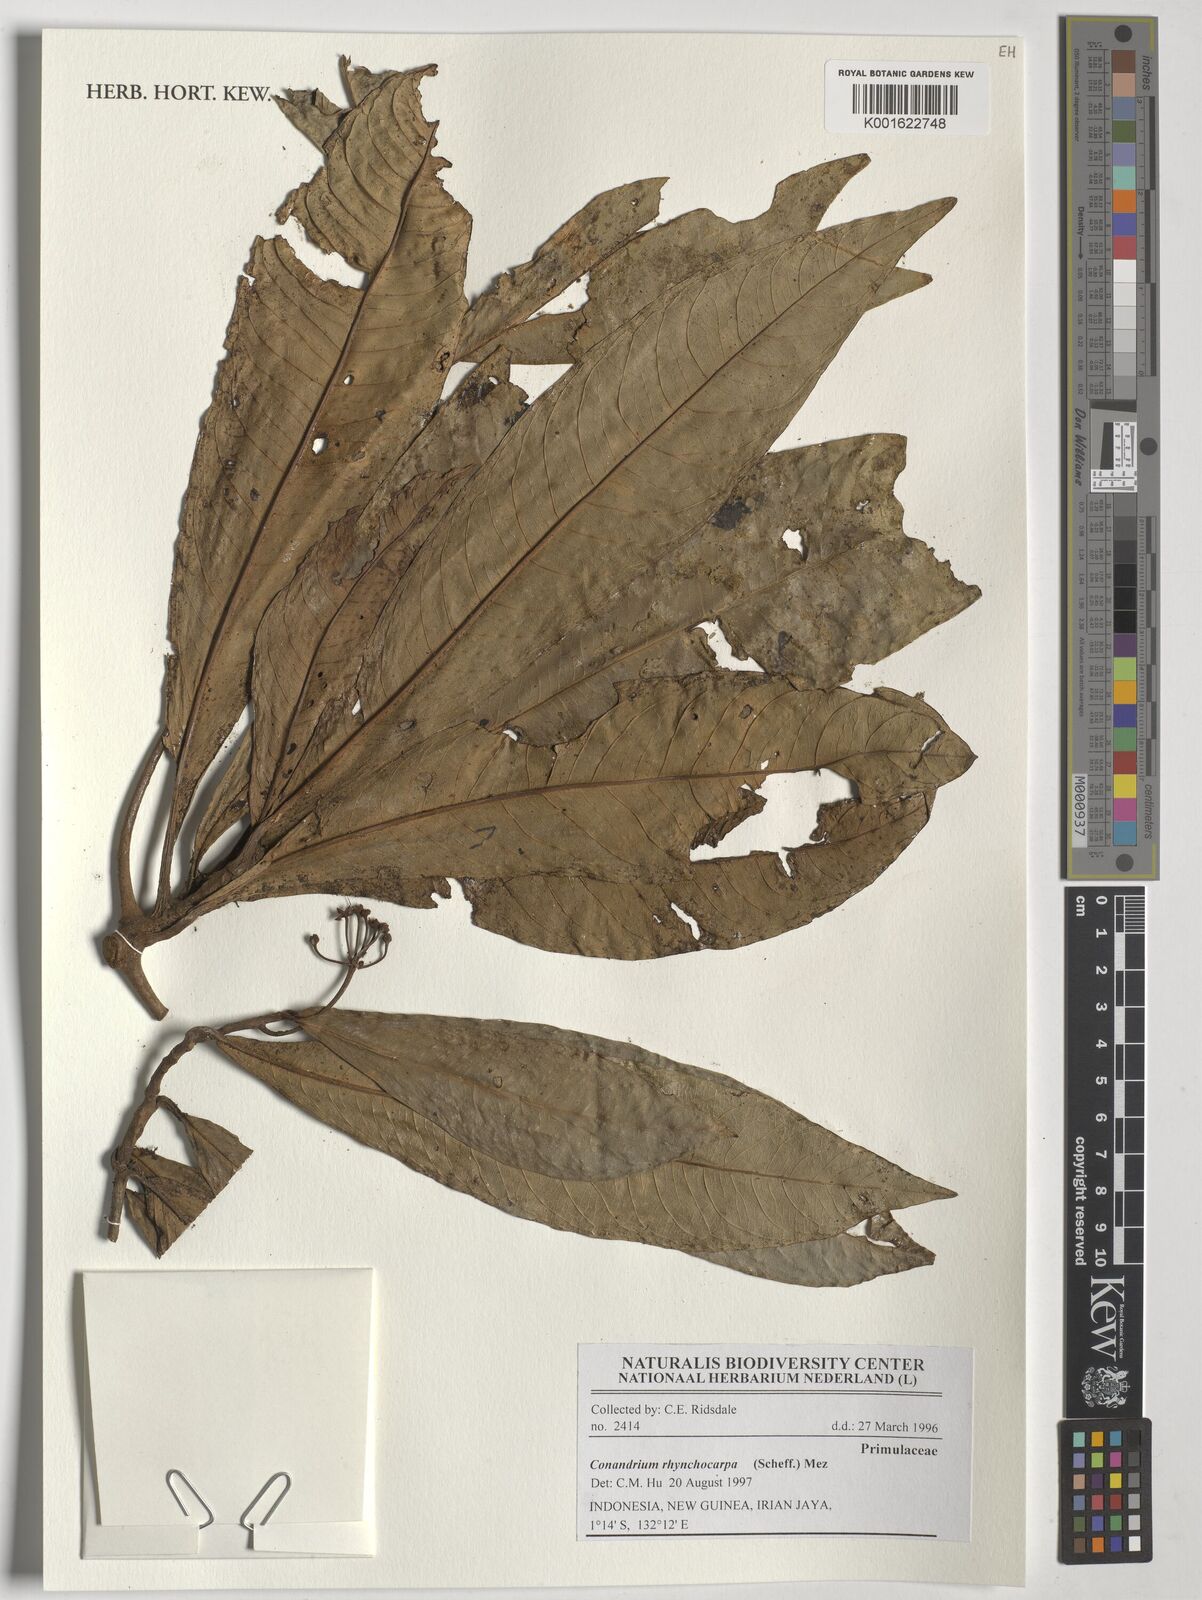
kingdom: Plantae
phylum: Tracheophyta
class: Magnoliopsida
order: Ericales
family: Primulaceae
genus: Conandrium
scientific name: Conandrium
